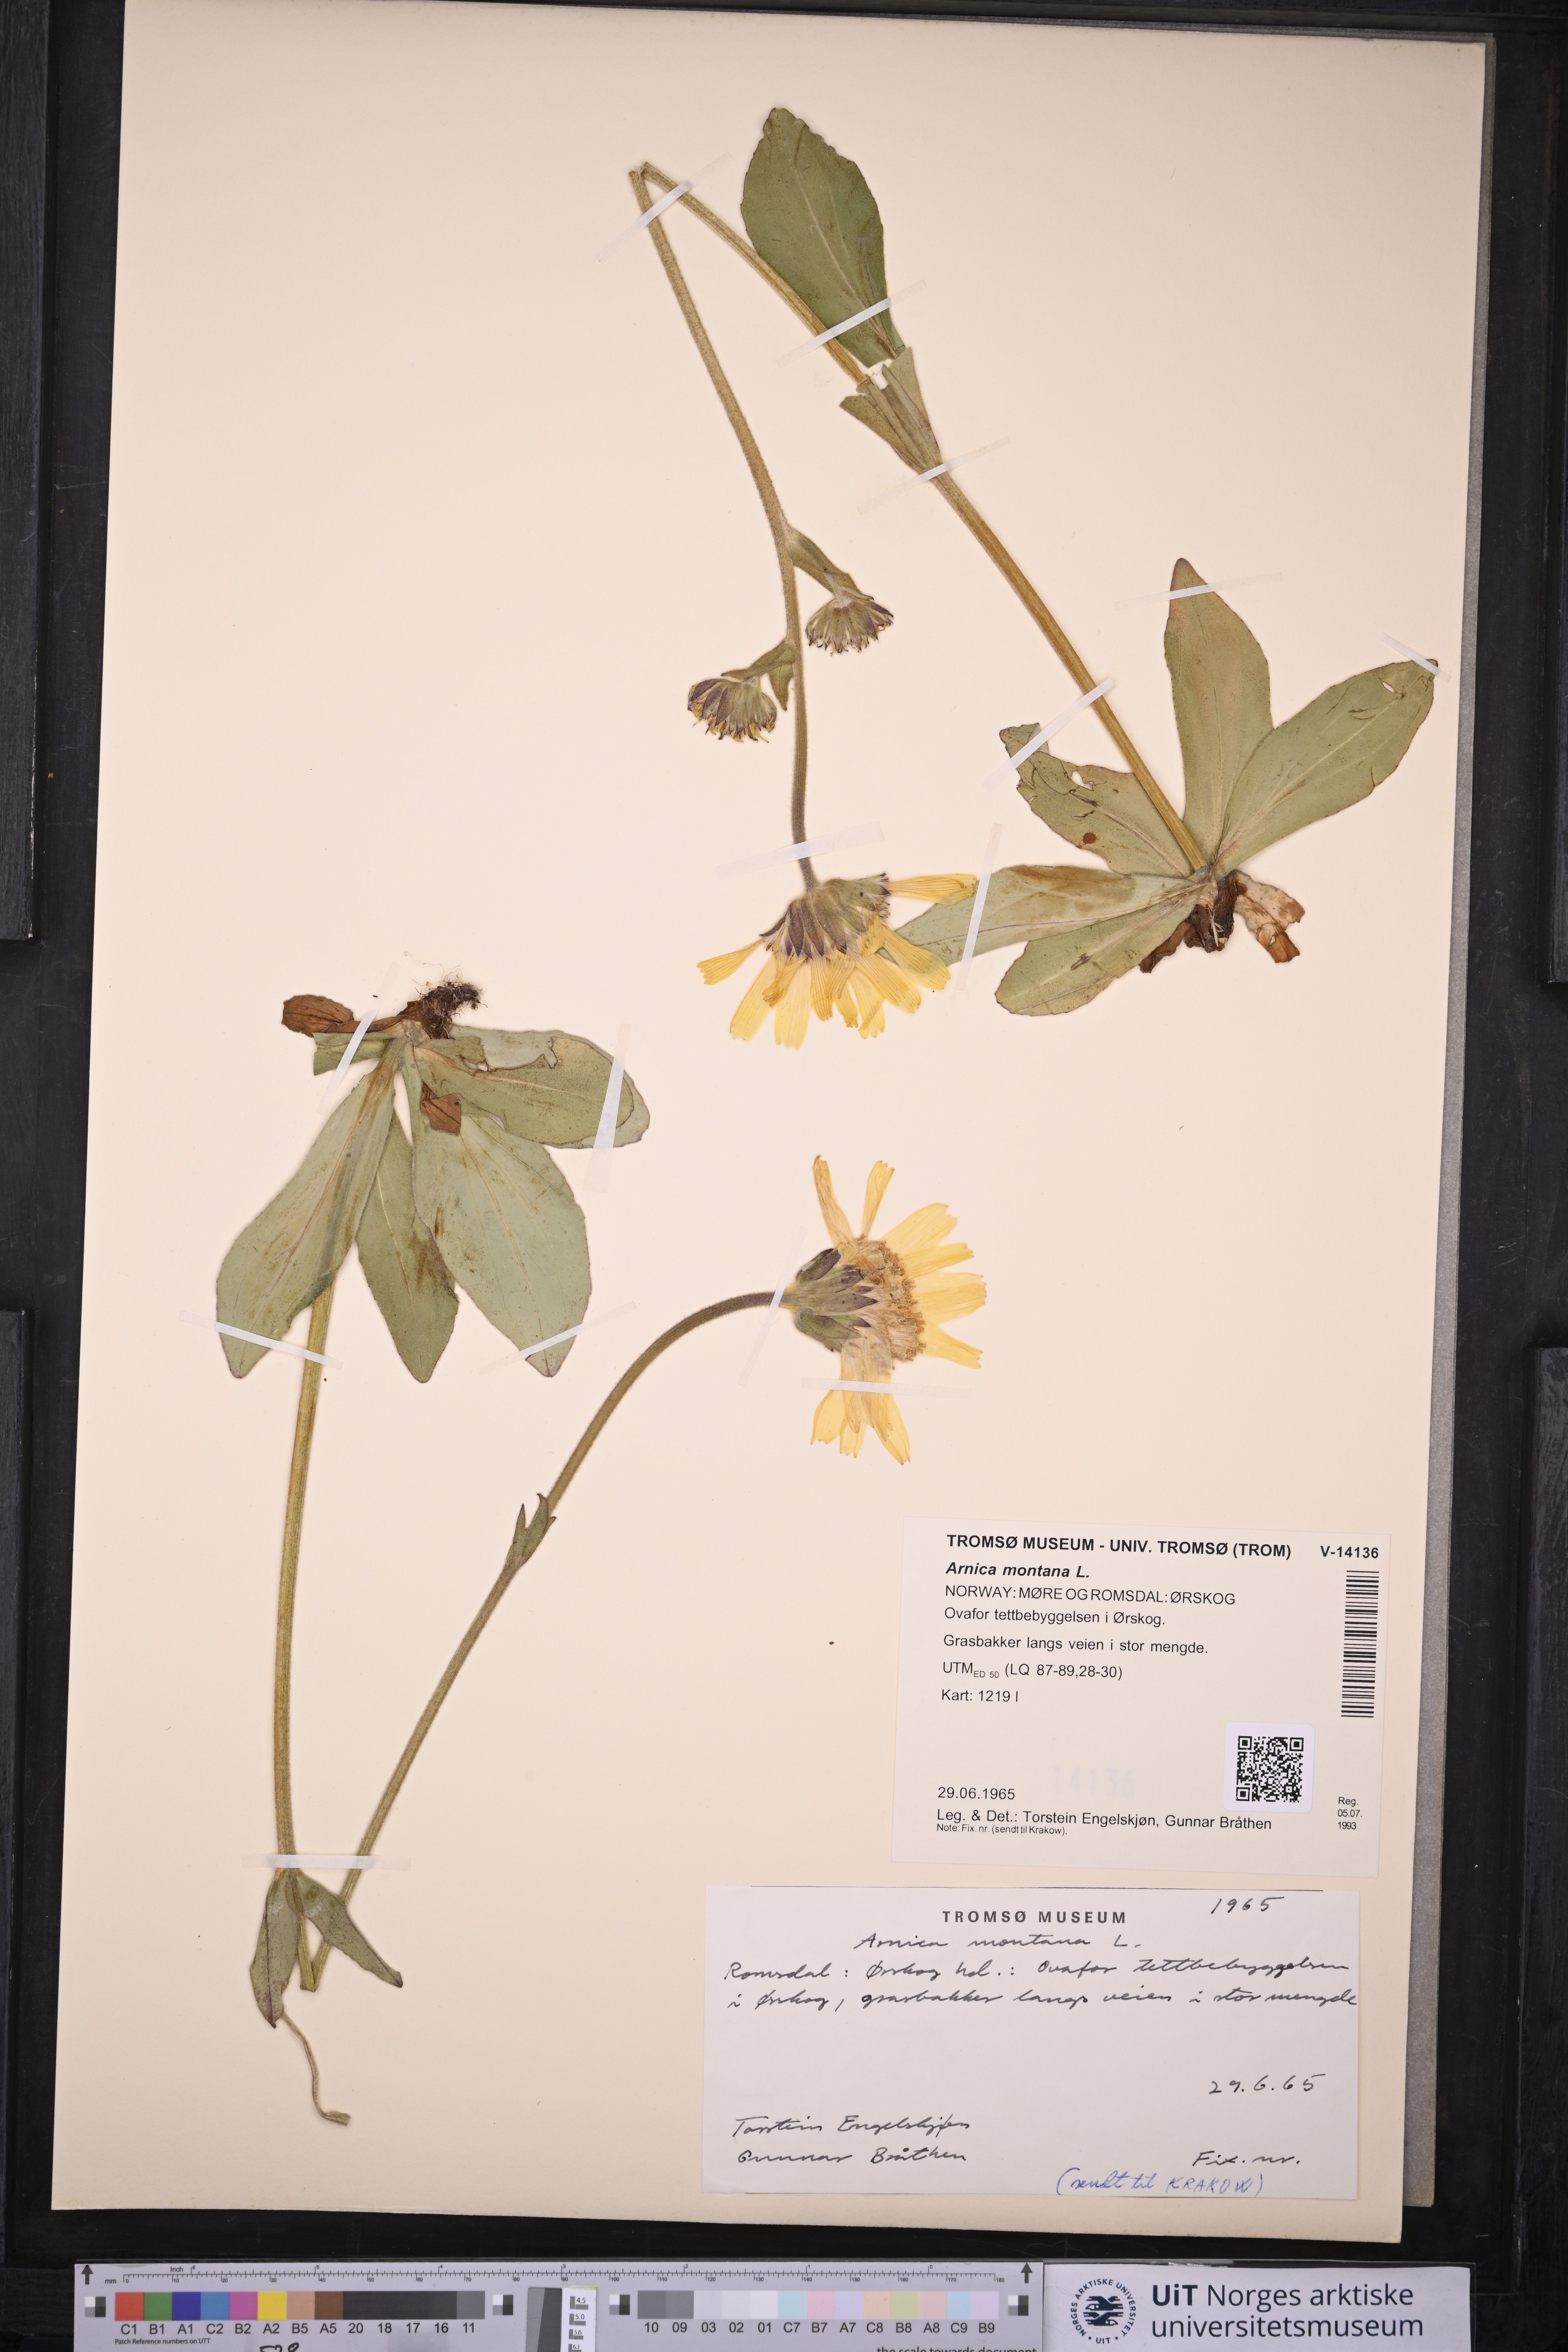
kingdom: Plantae
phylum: Tracheophyta
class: Magnoliopsida
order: Asterales
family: Asteraceae
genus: Arnica
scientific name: Arnica montana
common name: Leopard's bane
